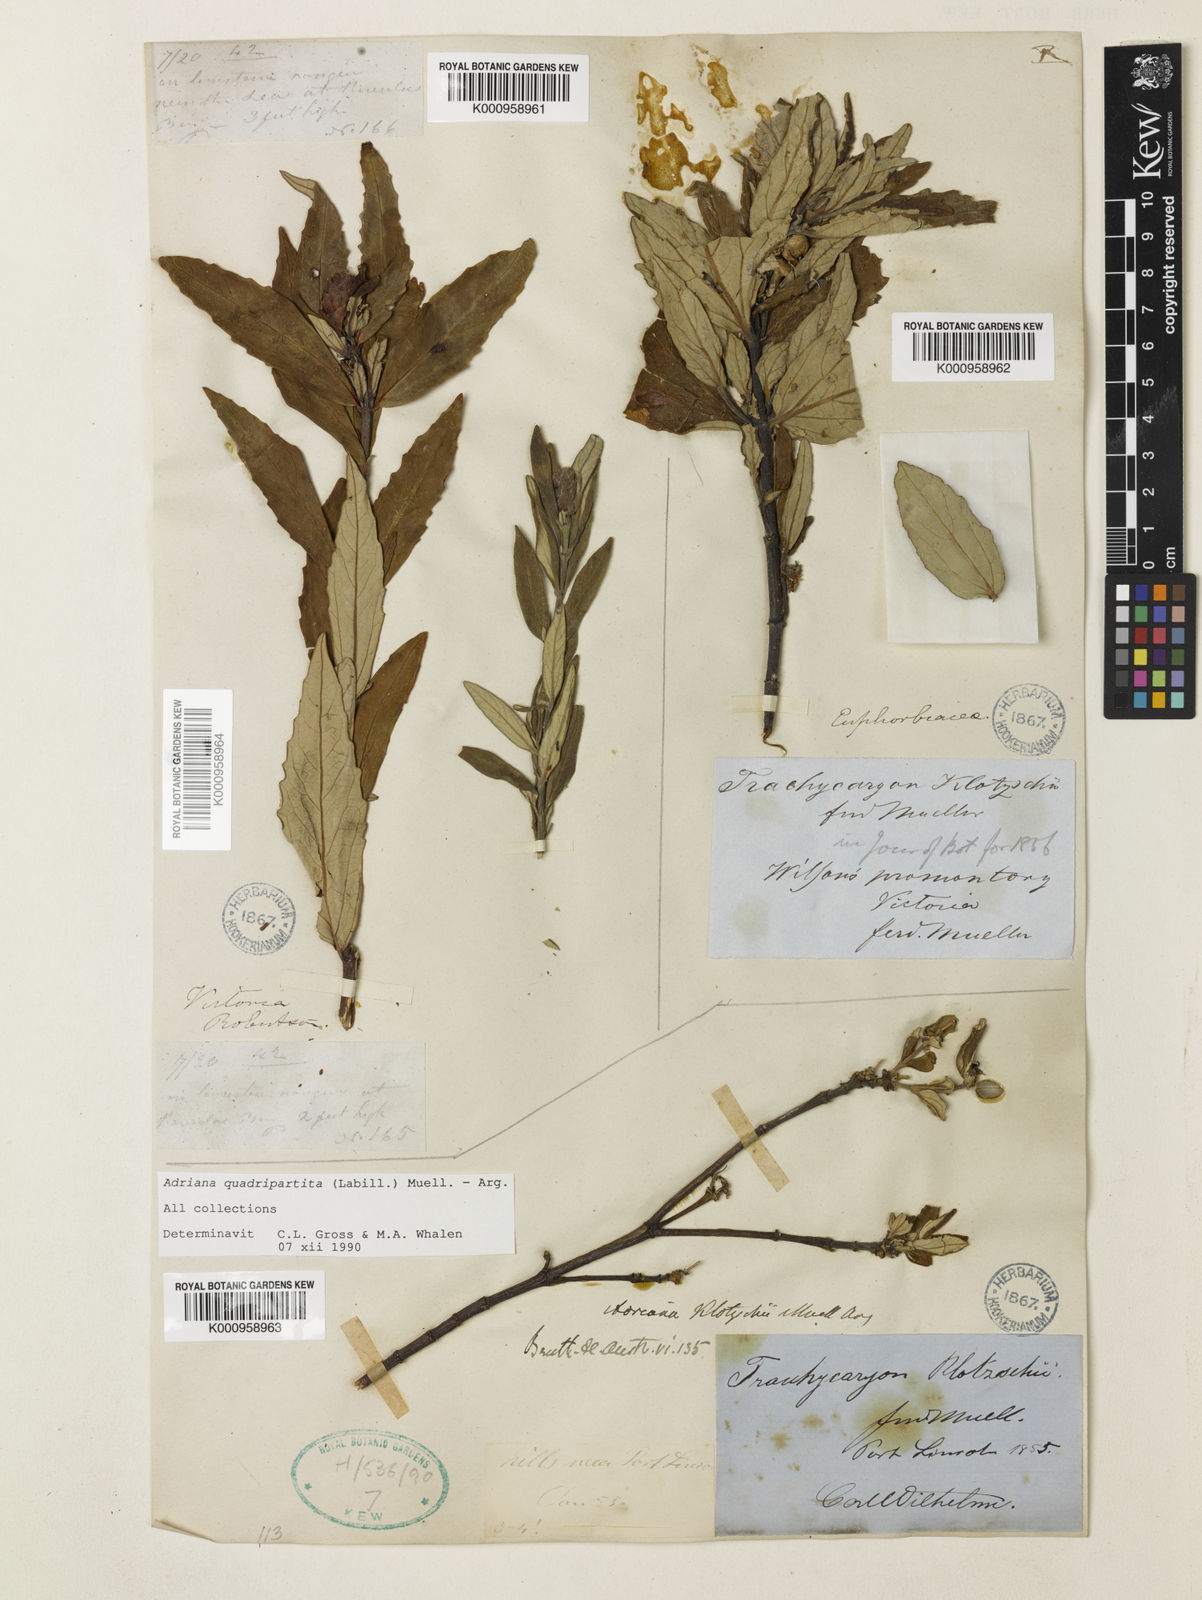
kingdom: Plantae
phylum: Tracheophyta
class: Magnoliopsida
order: Malpighiales
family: Euphorbiaceae
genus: Adriana
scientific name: Adriana
